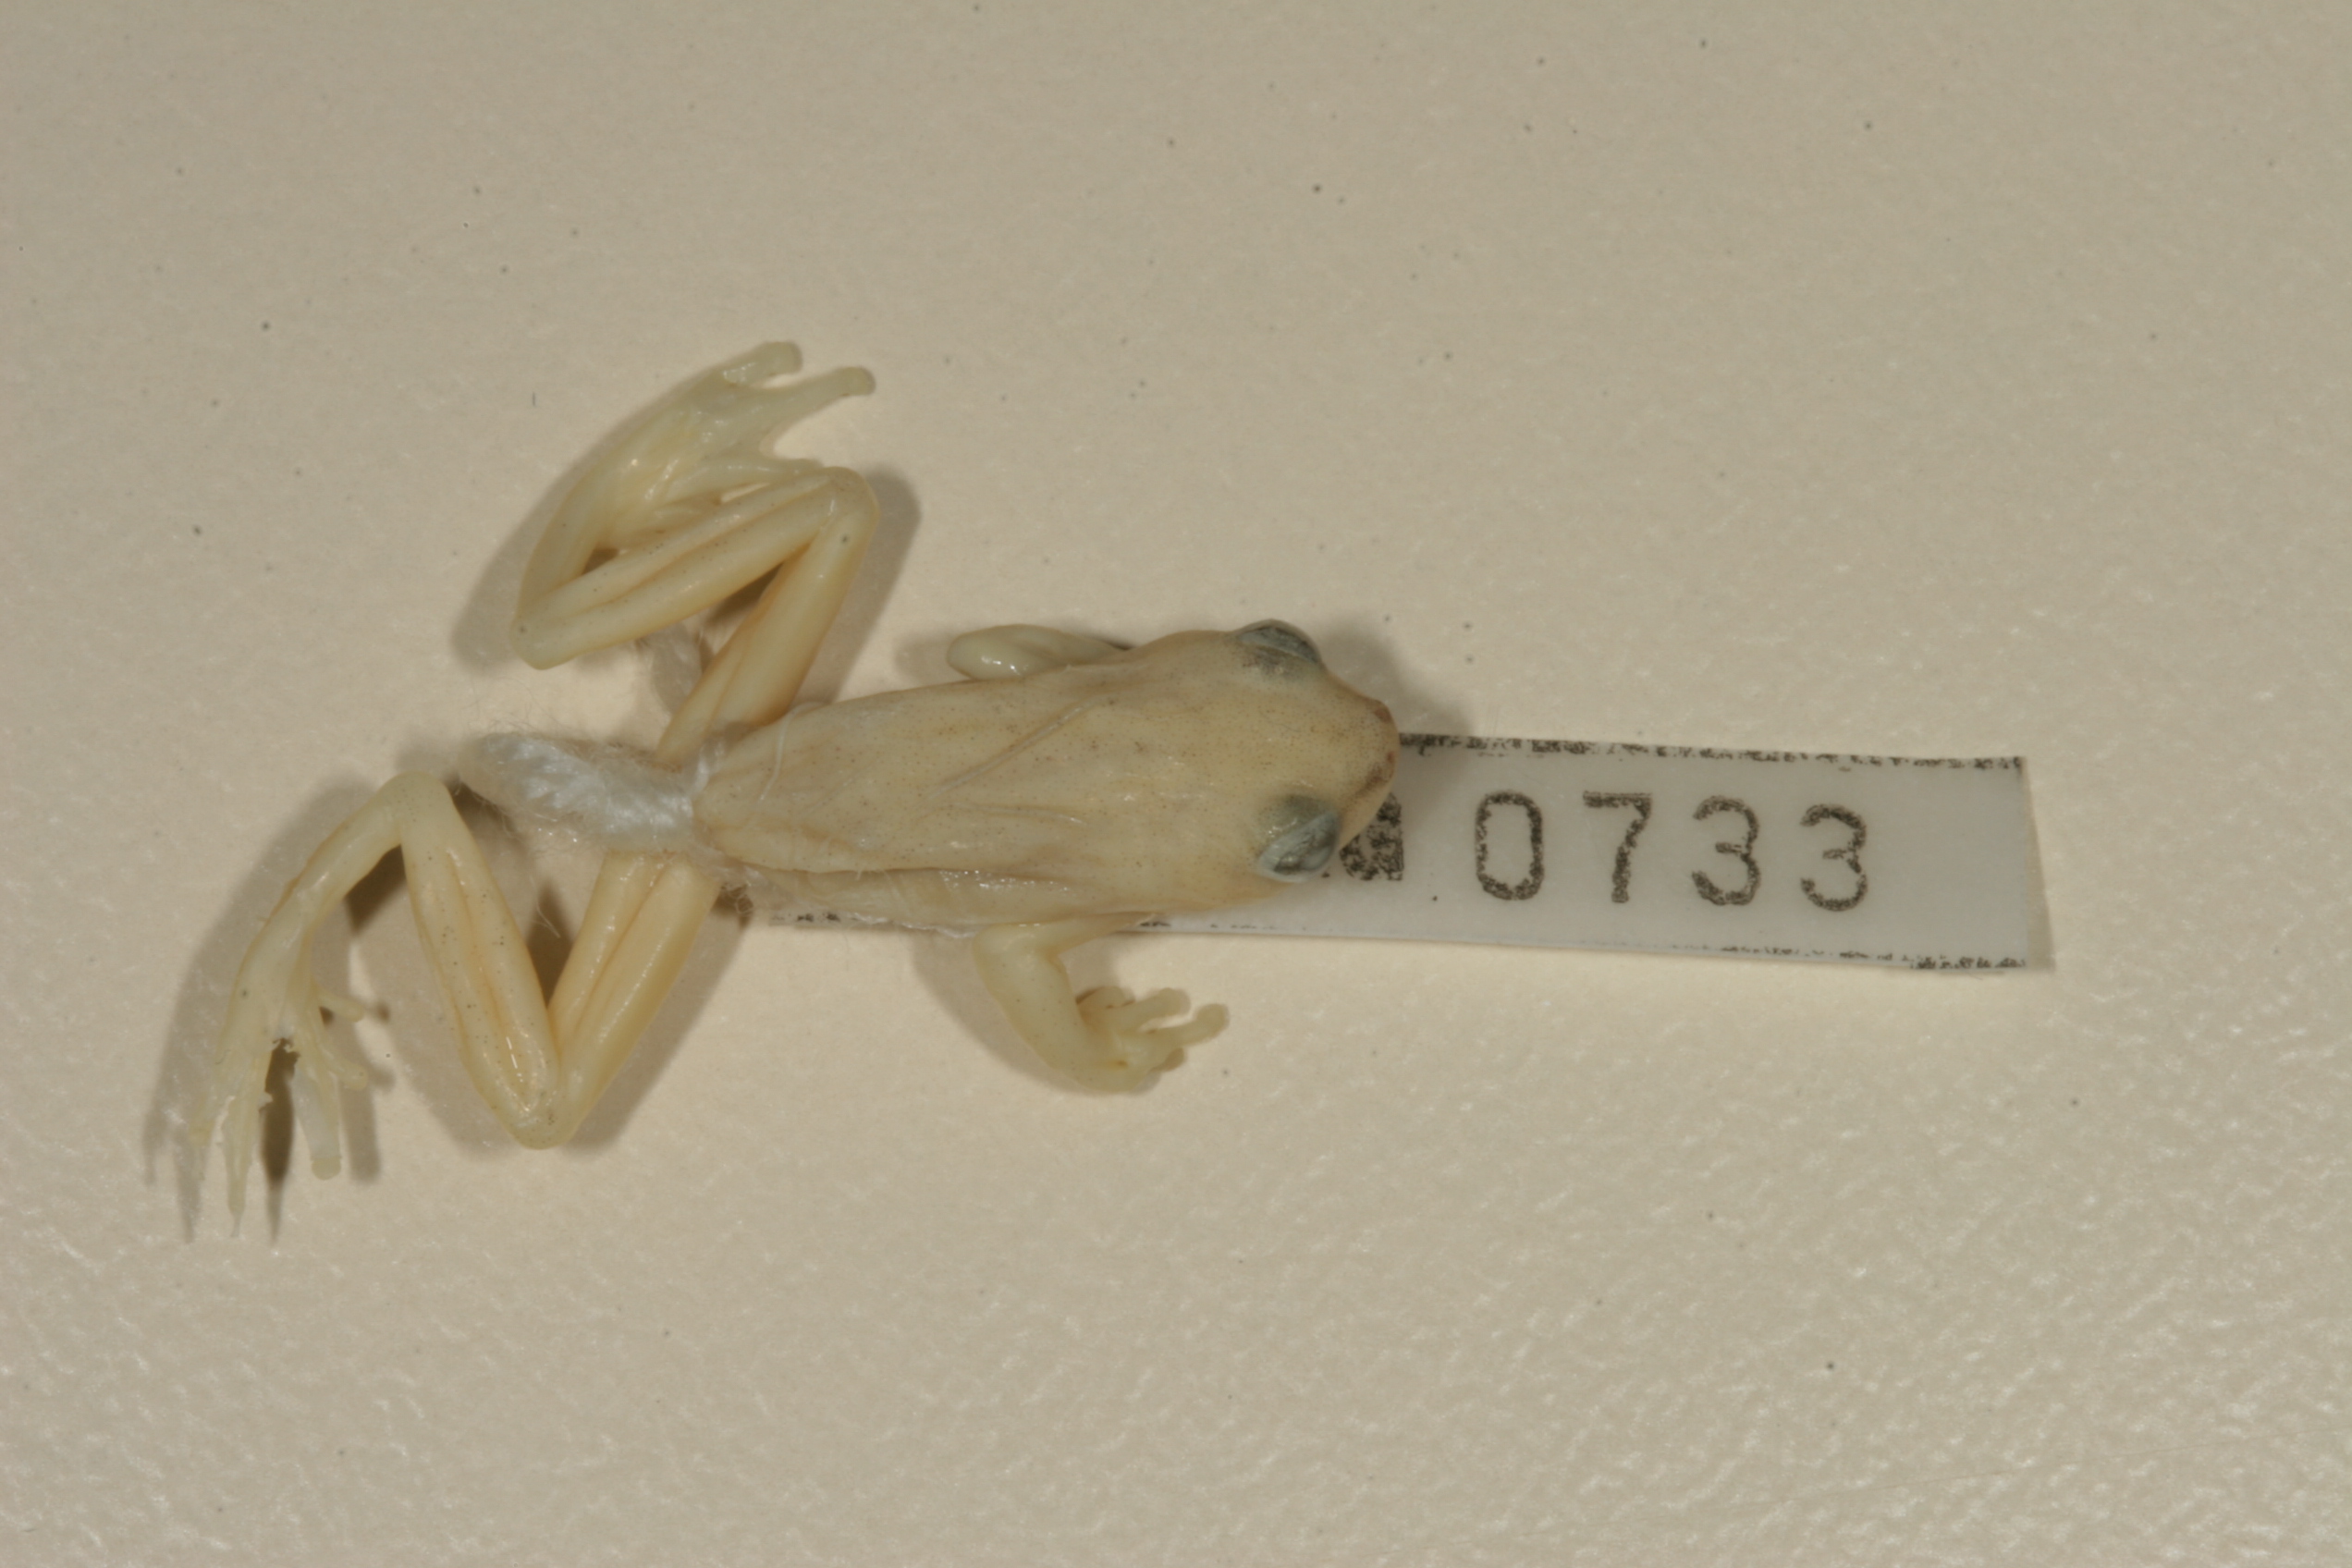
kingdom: Animalia
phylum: Chordata
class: Amphibia
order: Anura
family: Hyperoliidae
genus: Hyperolius
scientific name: Hyperolius marmoratus
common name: Painted reed frog
